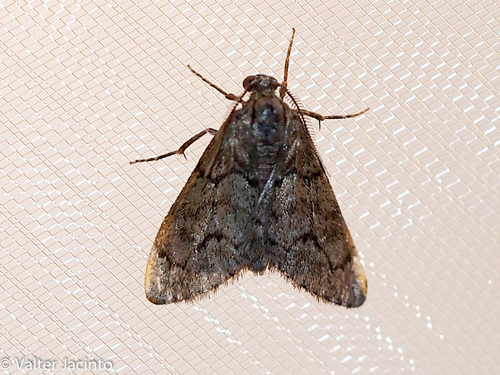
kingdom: Animalia
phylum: Arthropoda
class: Insecta
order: Lepidoptera
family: Geometridae
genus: Tephronia
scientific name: Tephronia sepiaria
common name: Dusky carpet
